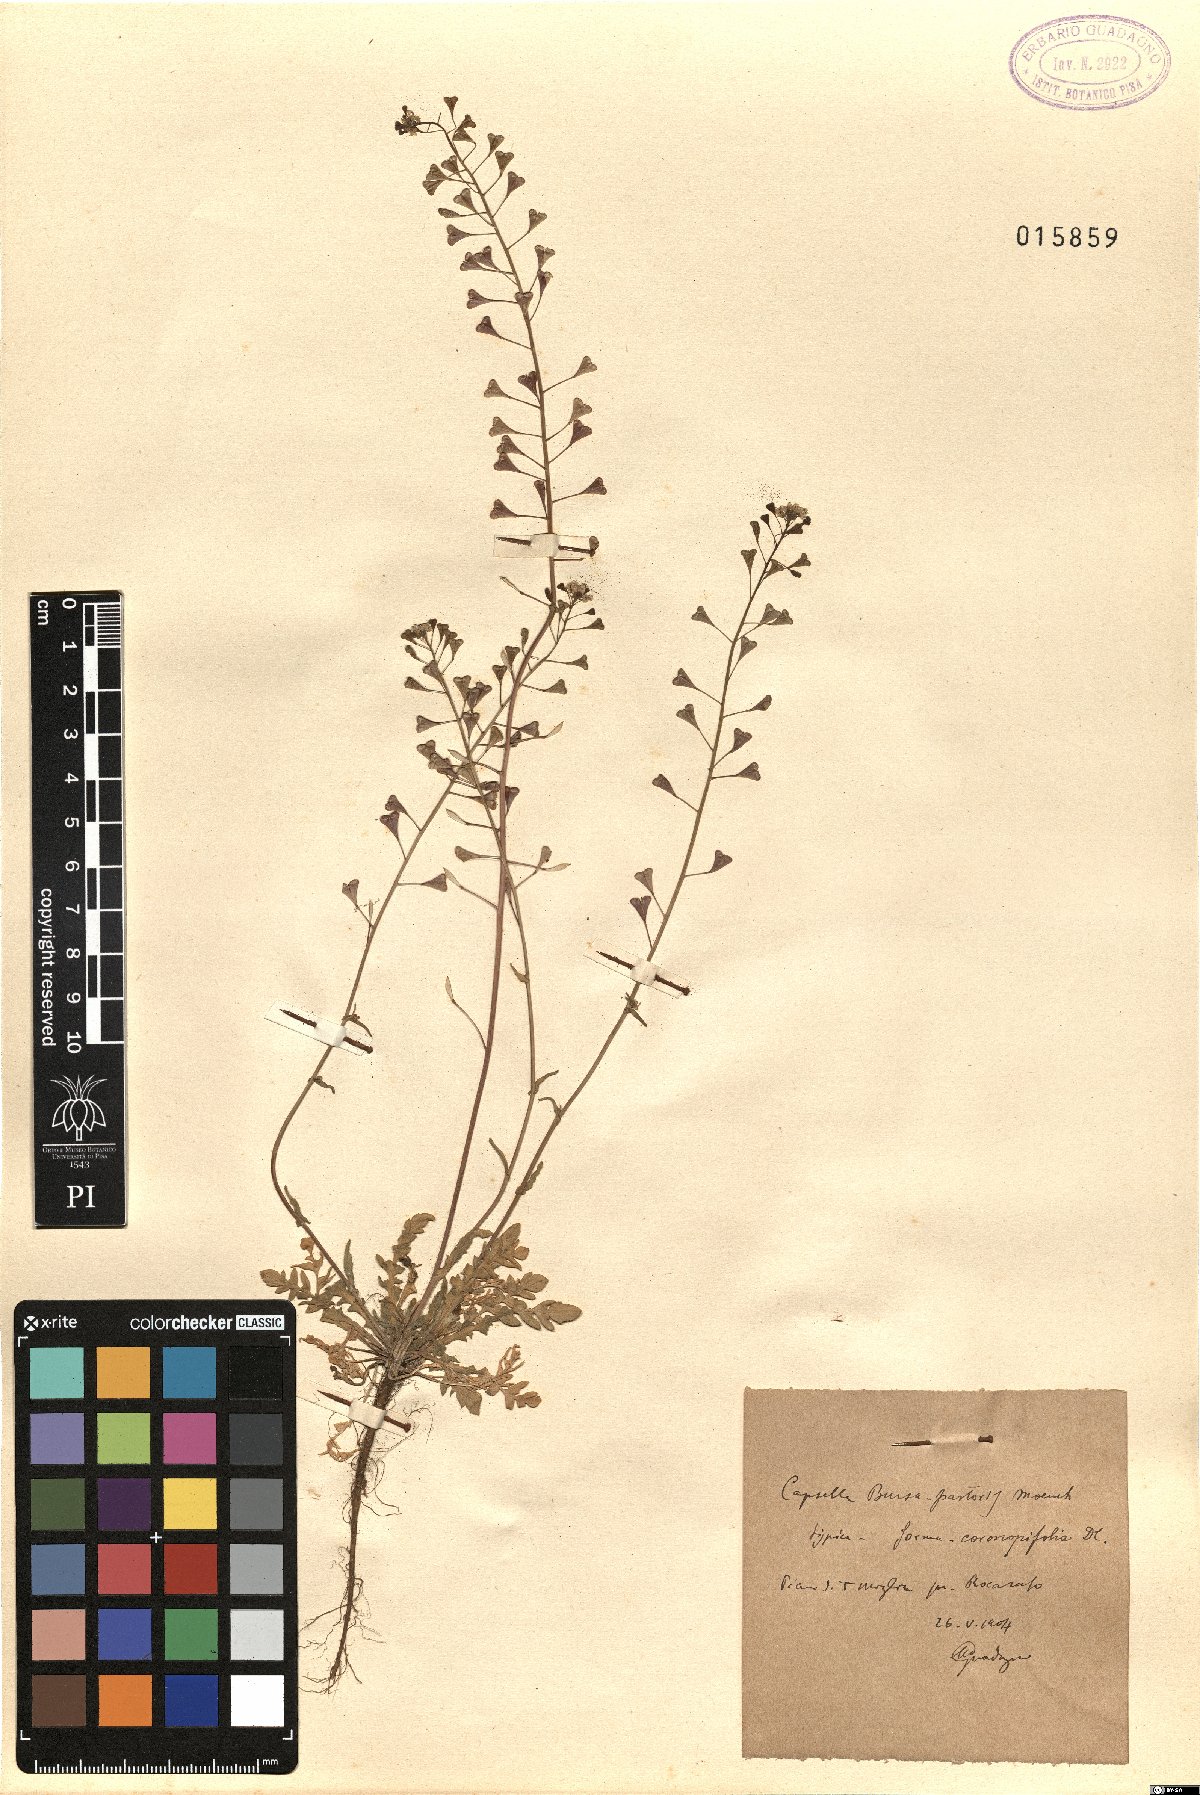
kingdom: Plantae
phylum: Tracheophyta
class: Magnoliopsida
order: Brassicales
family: Brassicaceae
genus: Capsella
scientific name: Capsella bursa-pastoris
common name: Shepherd's purse
